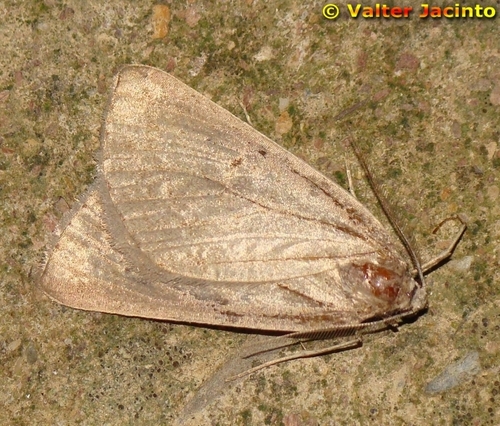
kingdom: Animalia
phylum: Arthropoda
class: Insecta
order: Lepidoptera
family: Geometridae
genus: Chemerina
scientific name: Chemerina caliginearia
